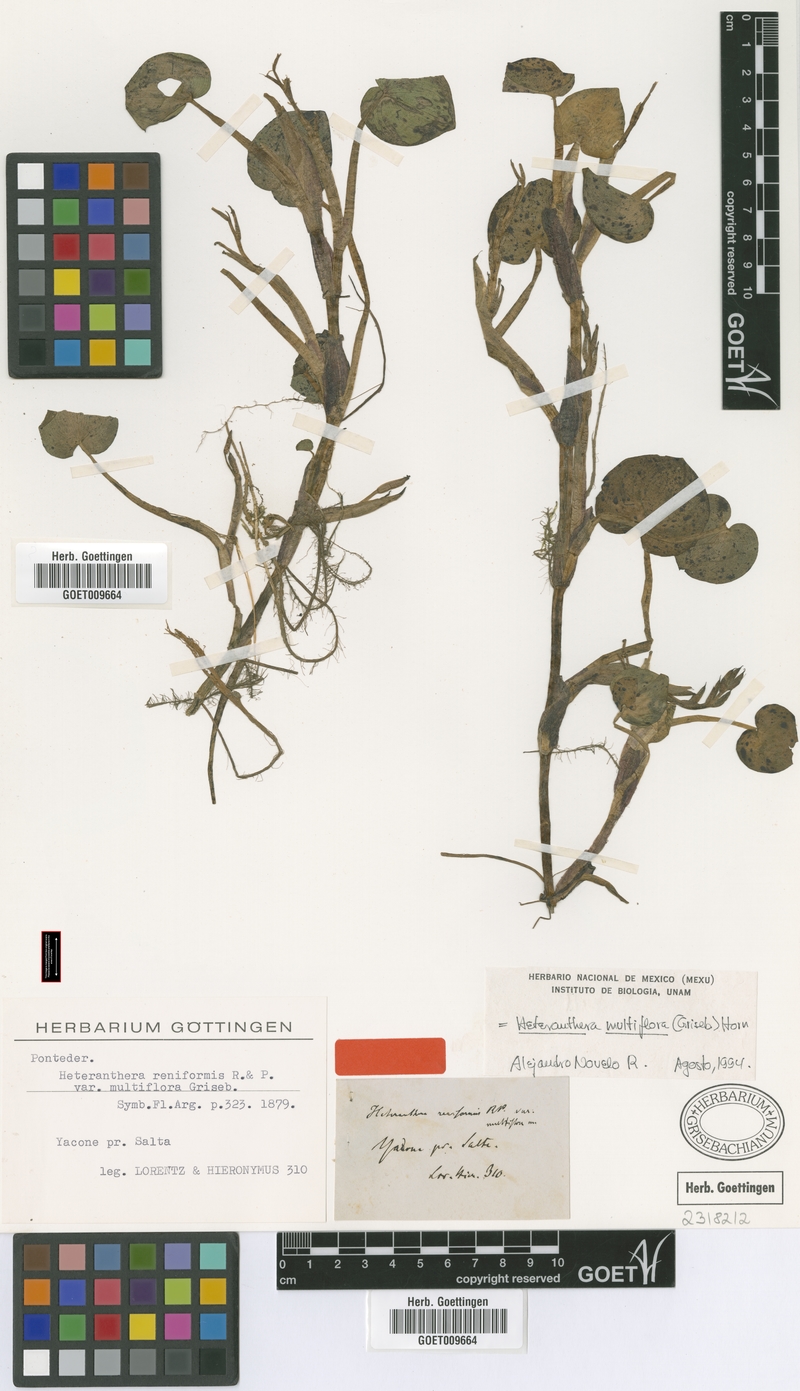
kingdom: Plantae
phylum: Tracheophyta
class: Liliopsida
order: Commelinales
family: Pontederiaceae
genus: Heteranthera
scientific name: Heteranthera multiflora
